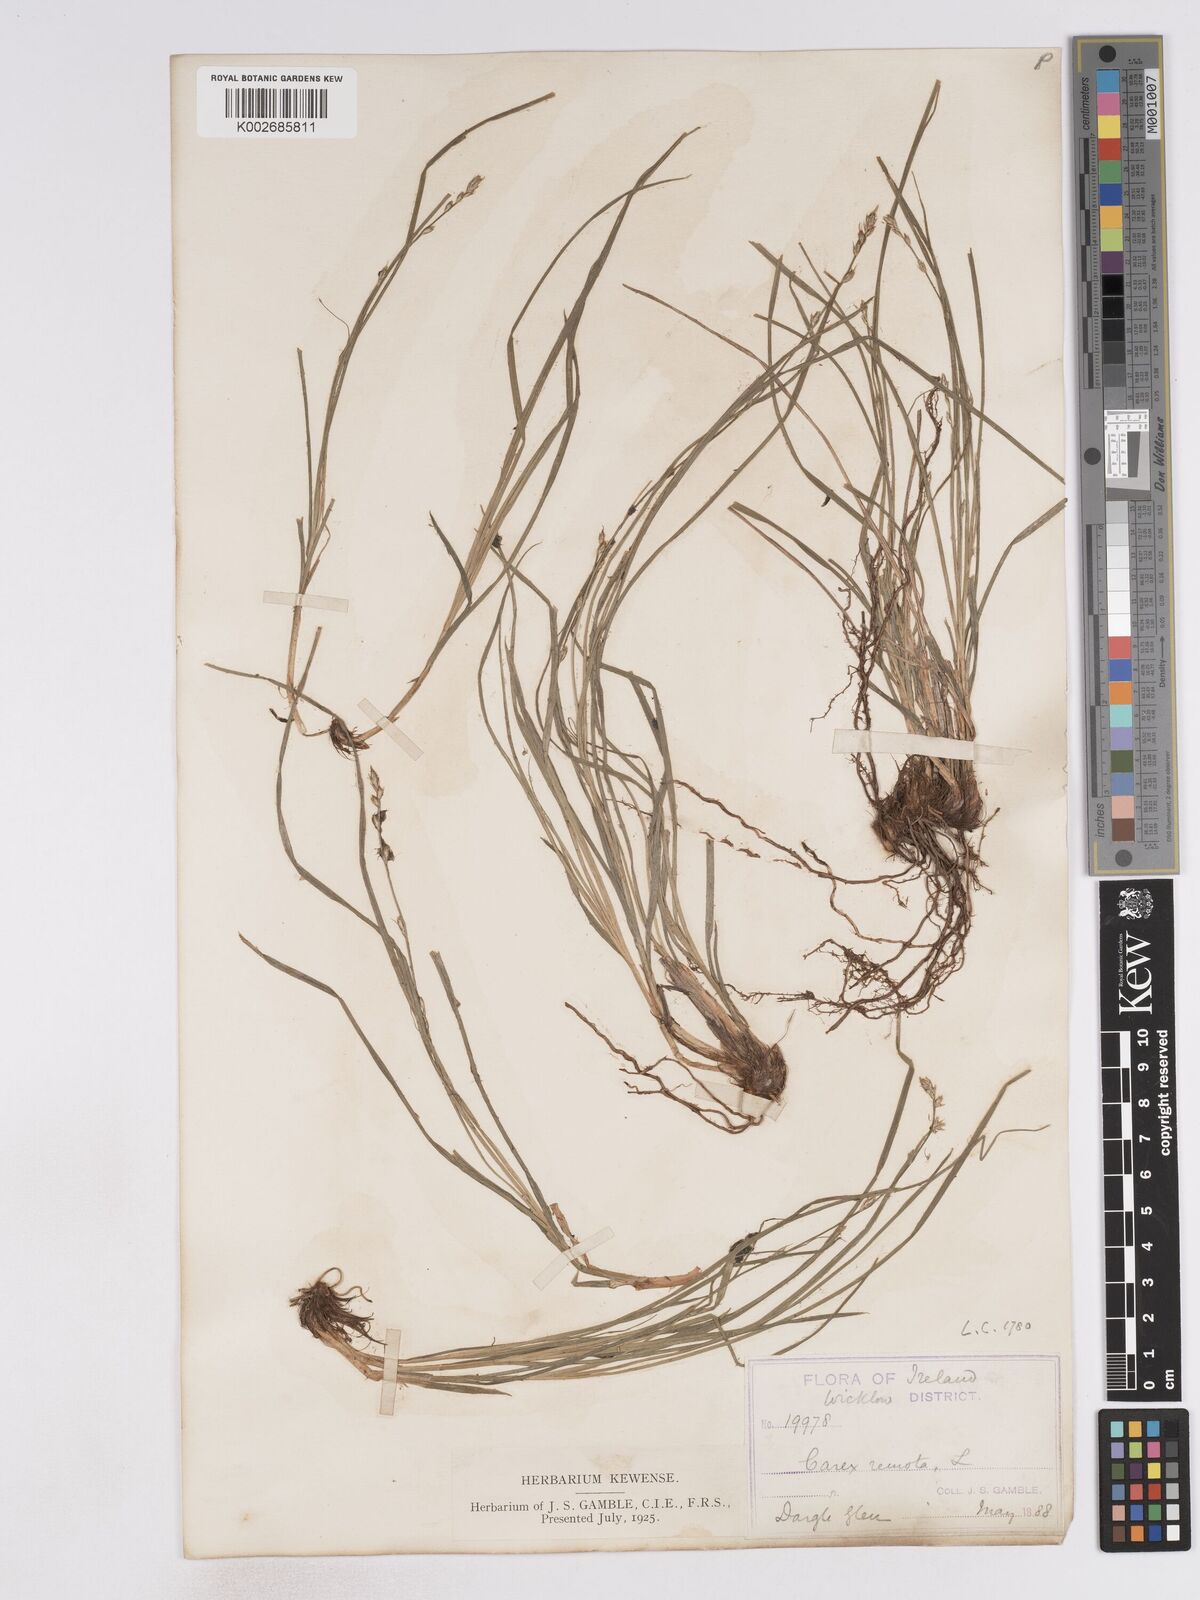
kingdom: Plantae
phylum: Tracheophyta
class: Liliopsida
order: Poales
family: Cyperaceae
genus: Carex
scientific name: Carex remota
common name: Remote sedge
